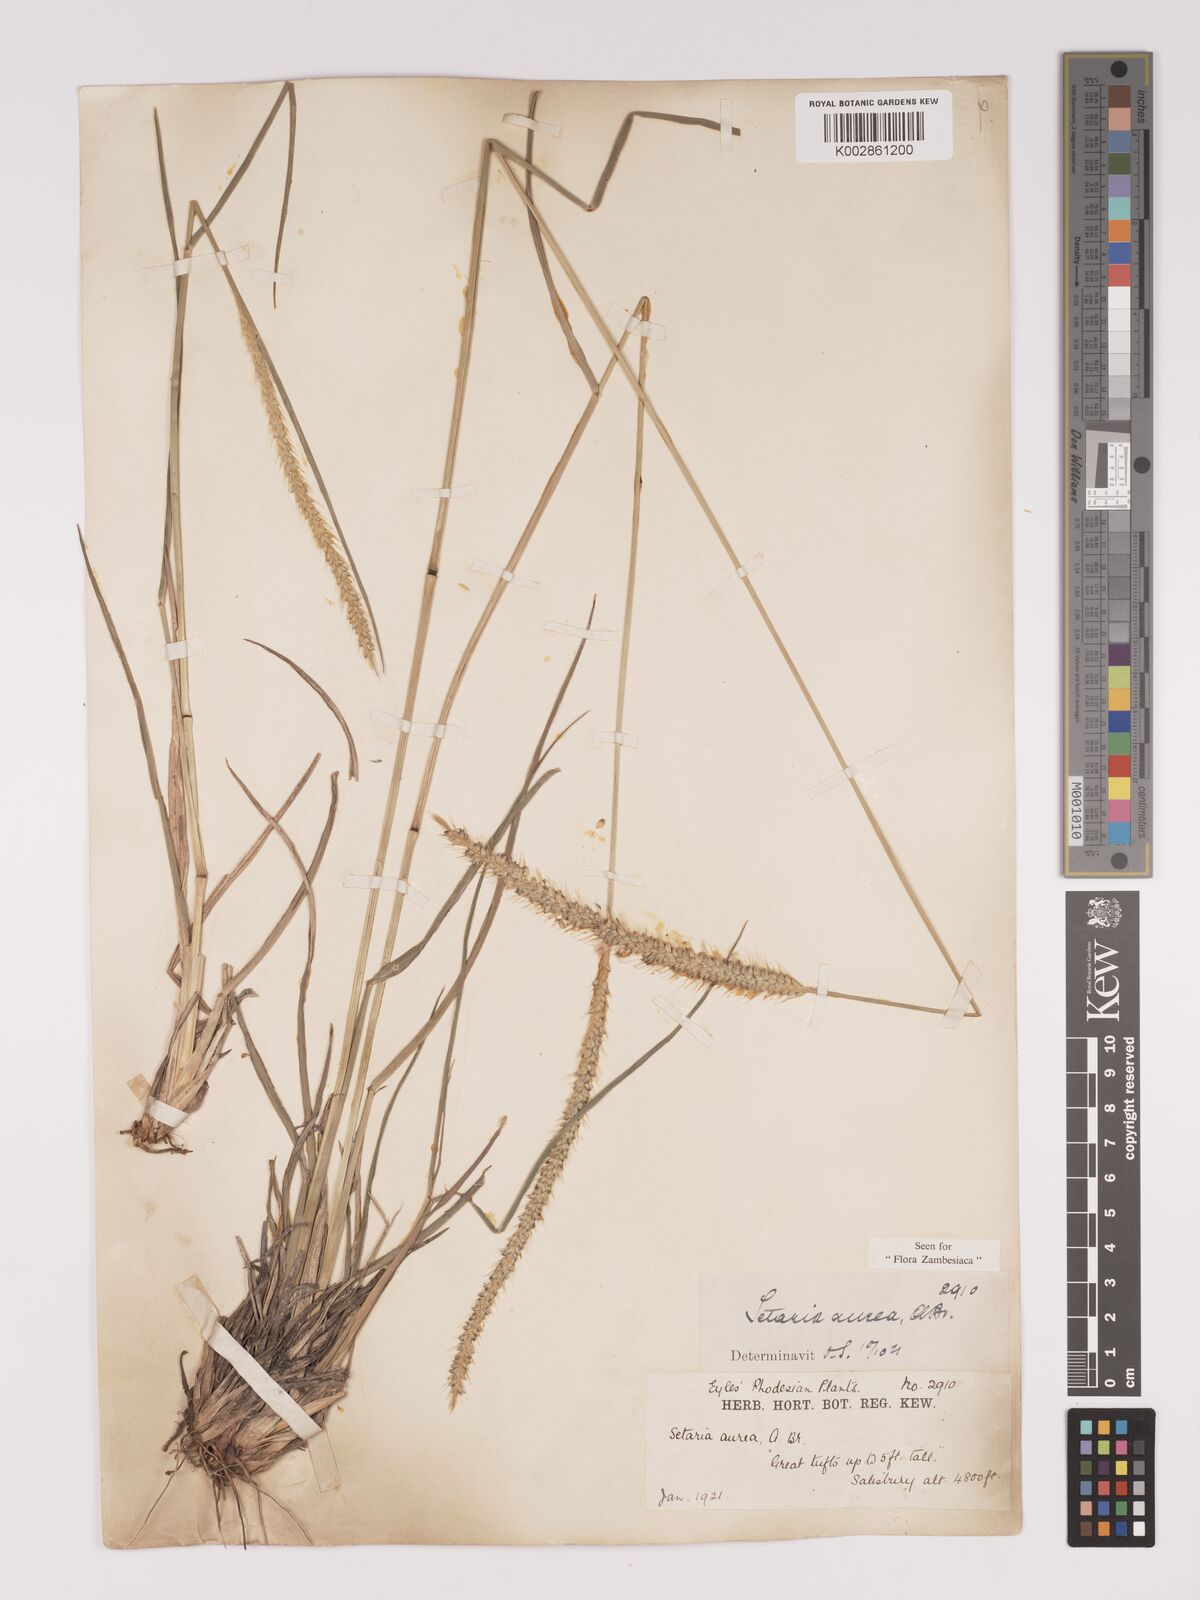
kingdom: Plantae
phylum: Tracheophyta
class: Liliopsida
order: Poales
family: Poaceae
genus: Setaria
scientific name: Setaria sphacelata
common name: African bristlegrass
